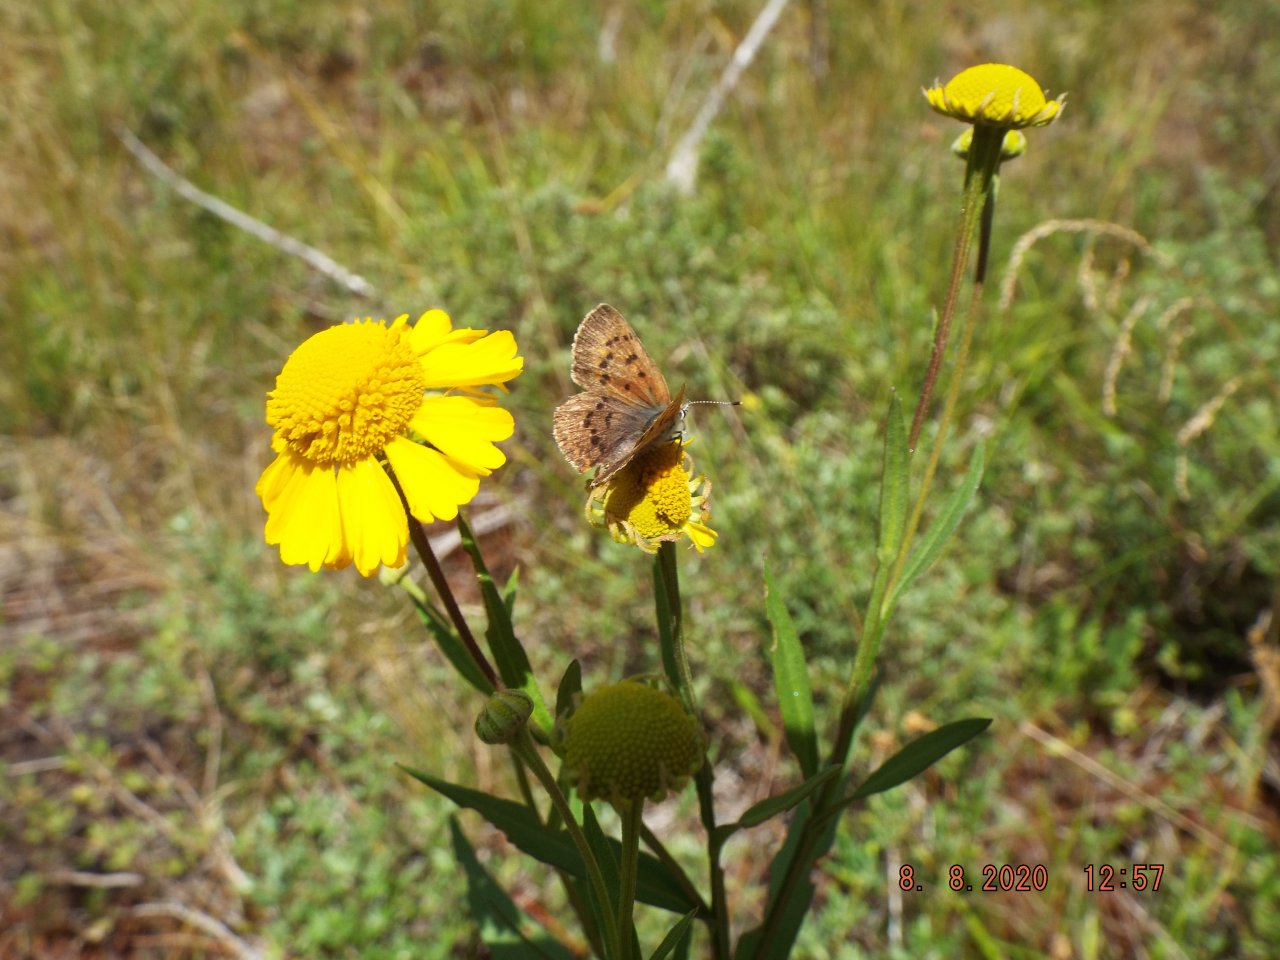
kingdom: Animalia
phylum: Arthropoda
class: Insecta
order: Lepidoptera
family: Lycaenidae
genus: Epidemia
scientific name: Epidemia dorcas
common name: Dorcas Copper
